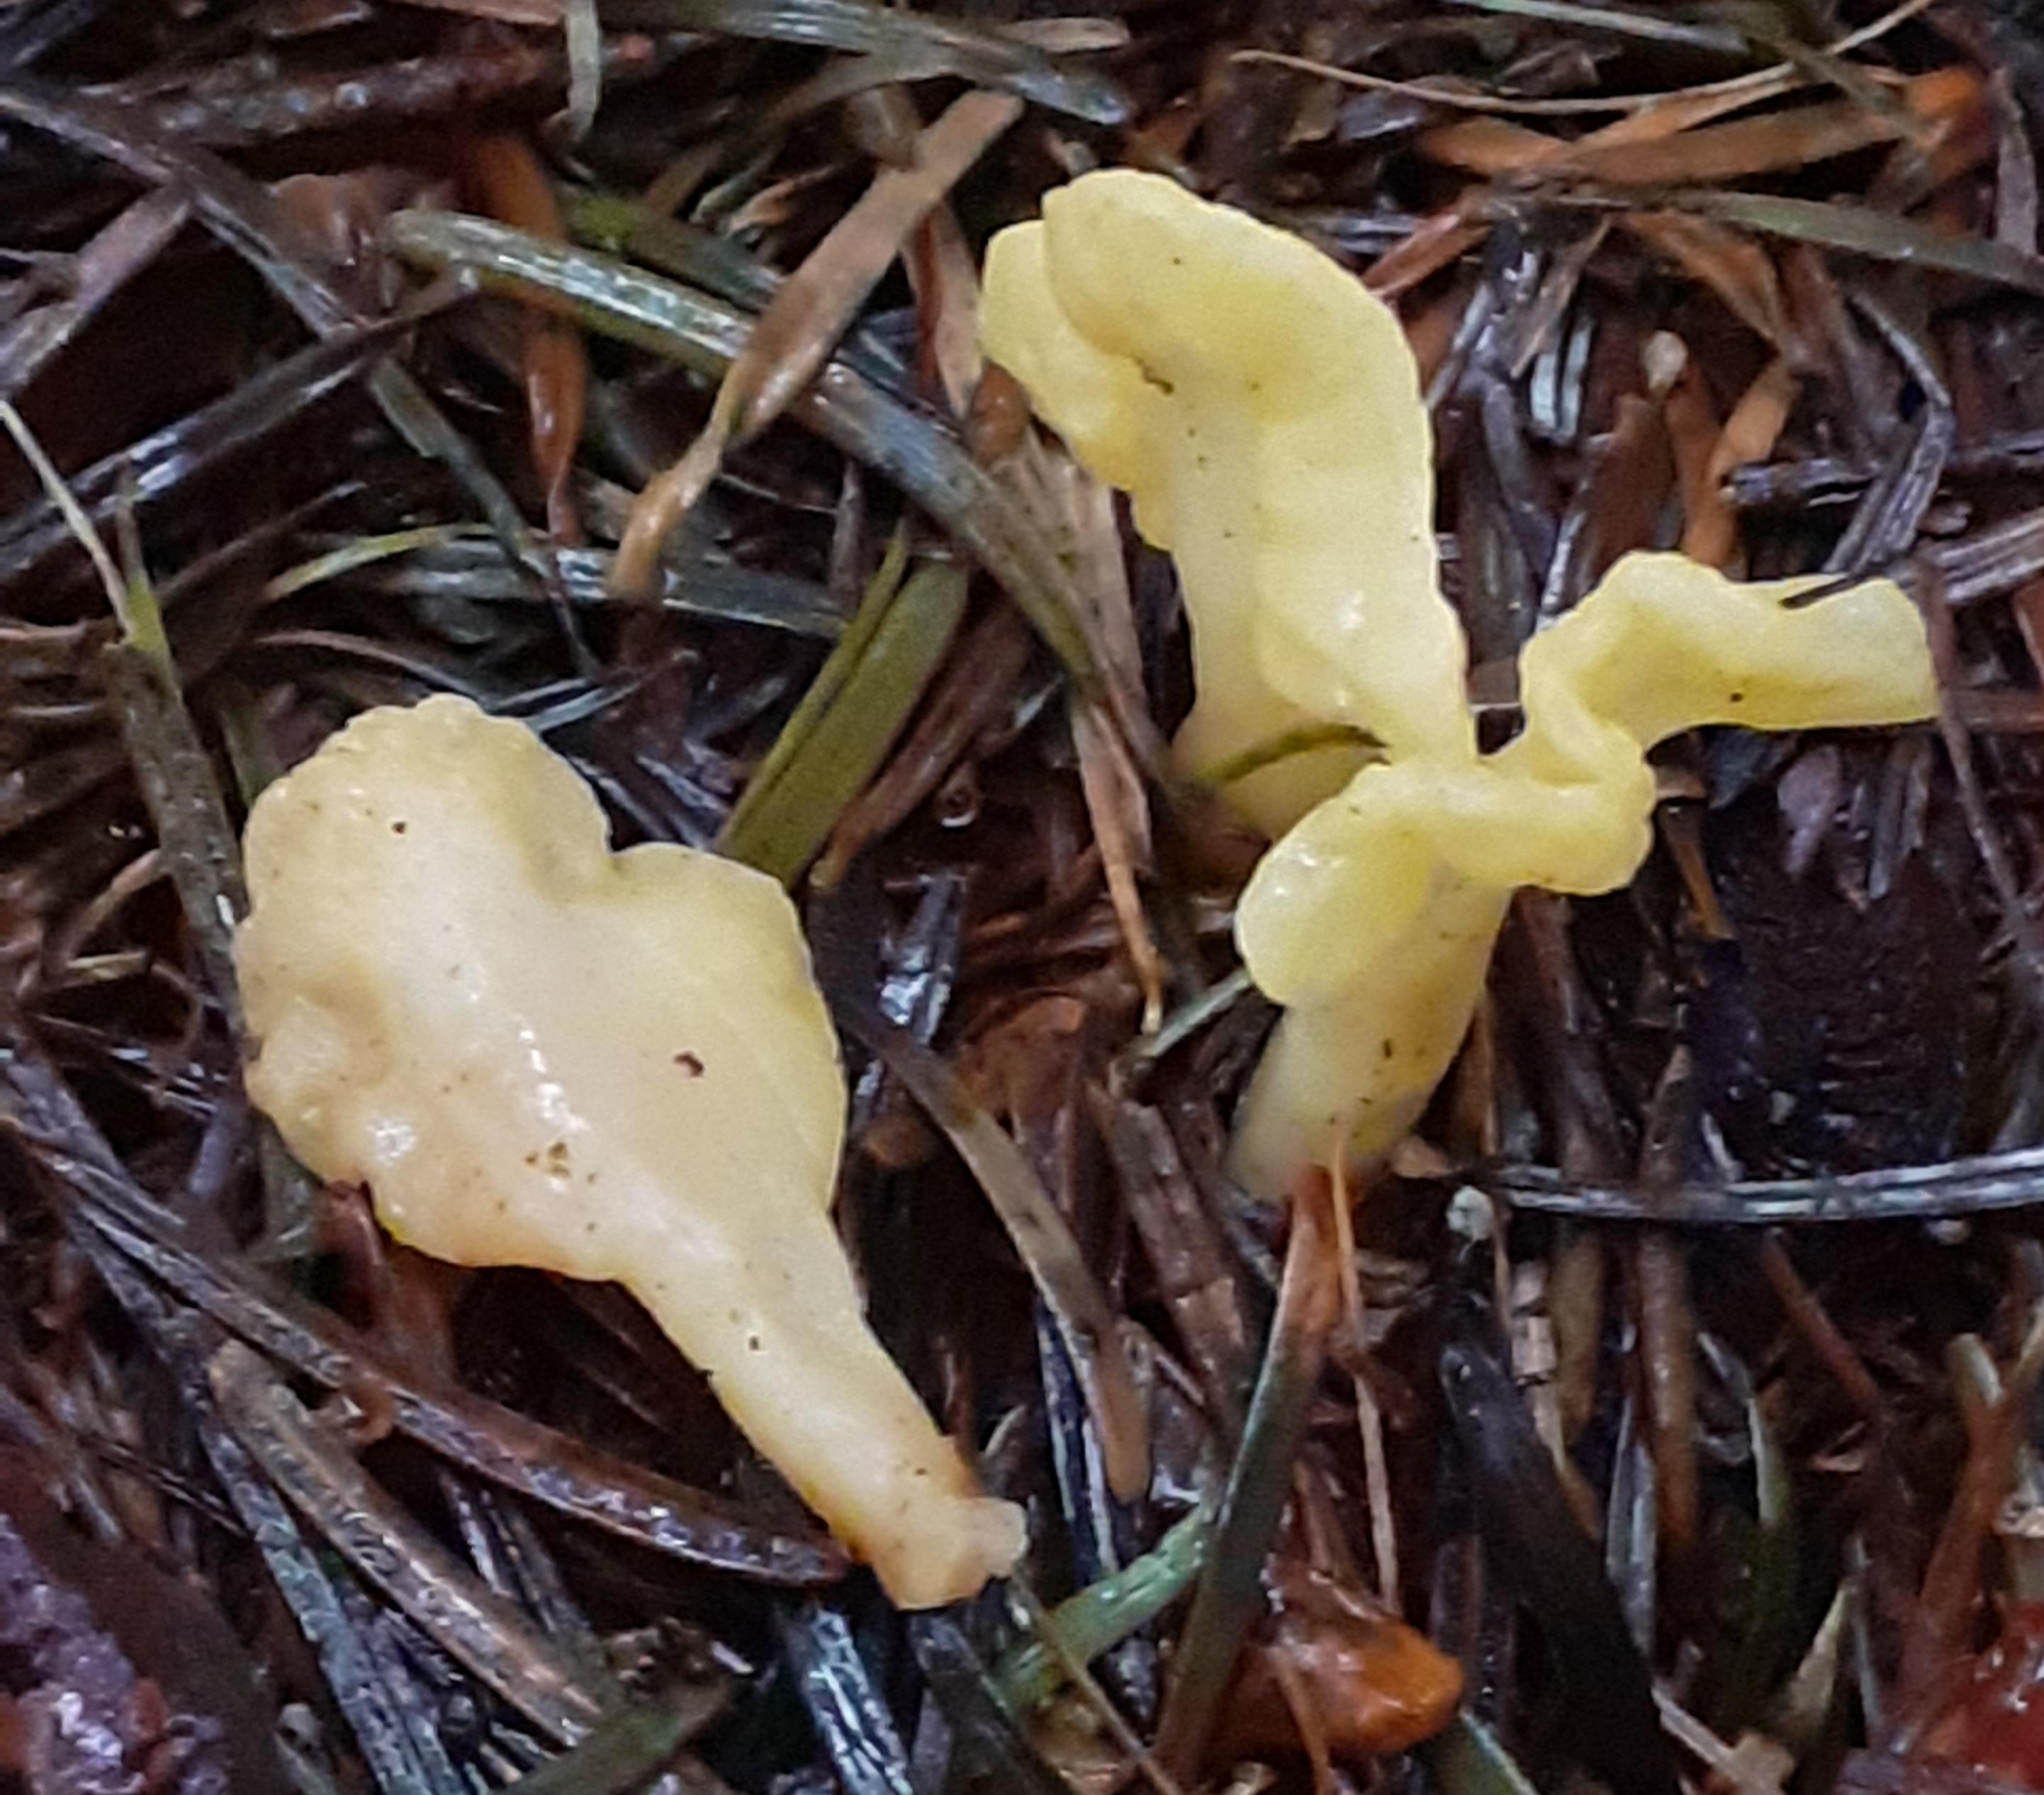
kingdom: Fungi
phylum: Ascomycota
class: Leotiomycetes
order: Rhytismatales
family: Cudoniaceae
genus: Spathularia
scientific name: Spathularia flavida
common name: gul spatelsvamp
